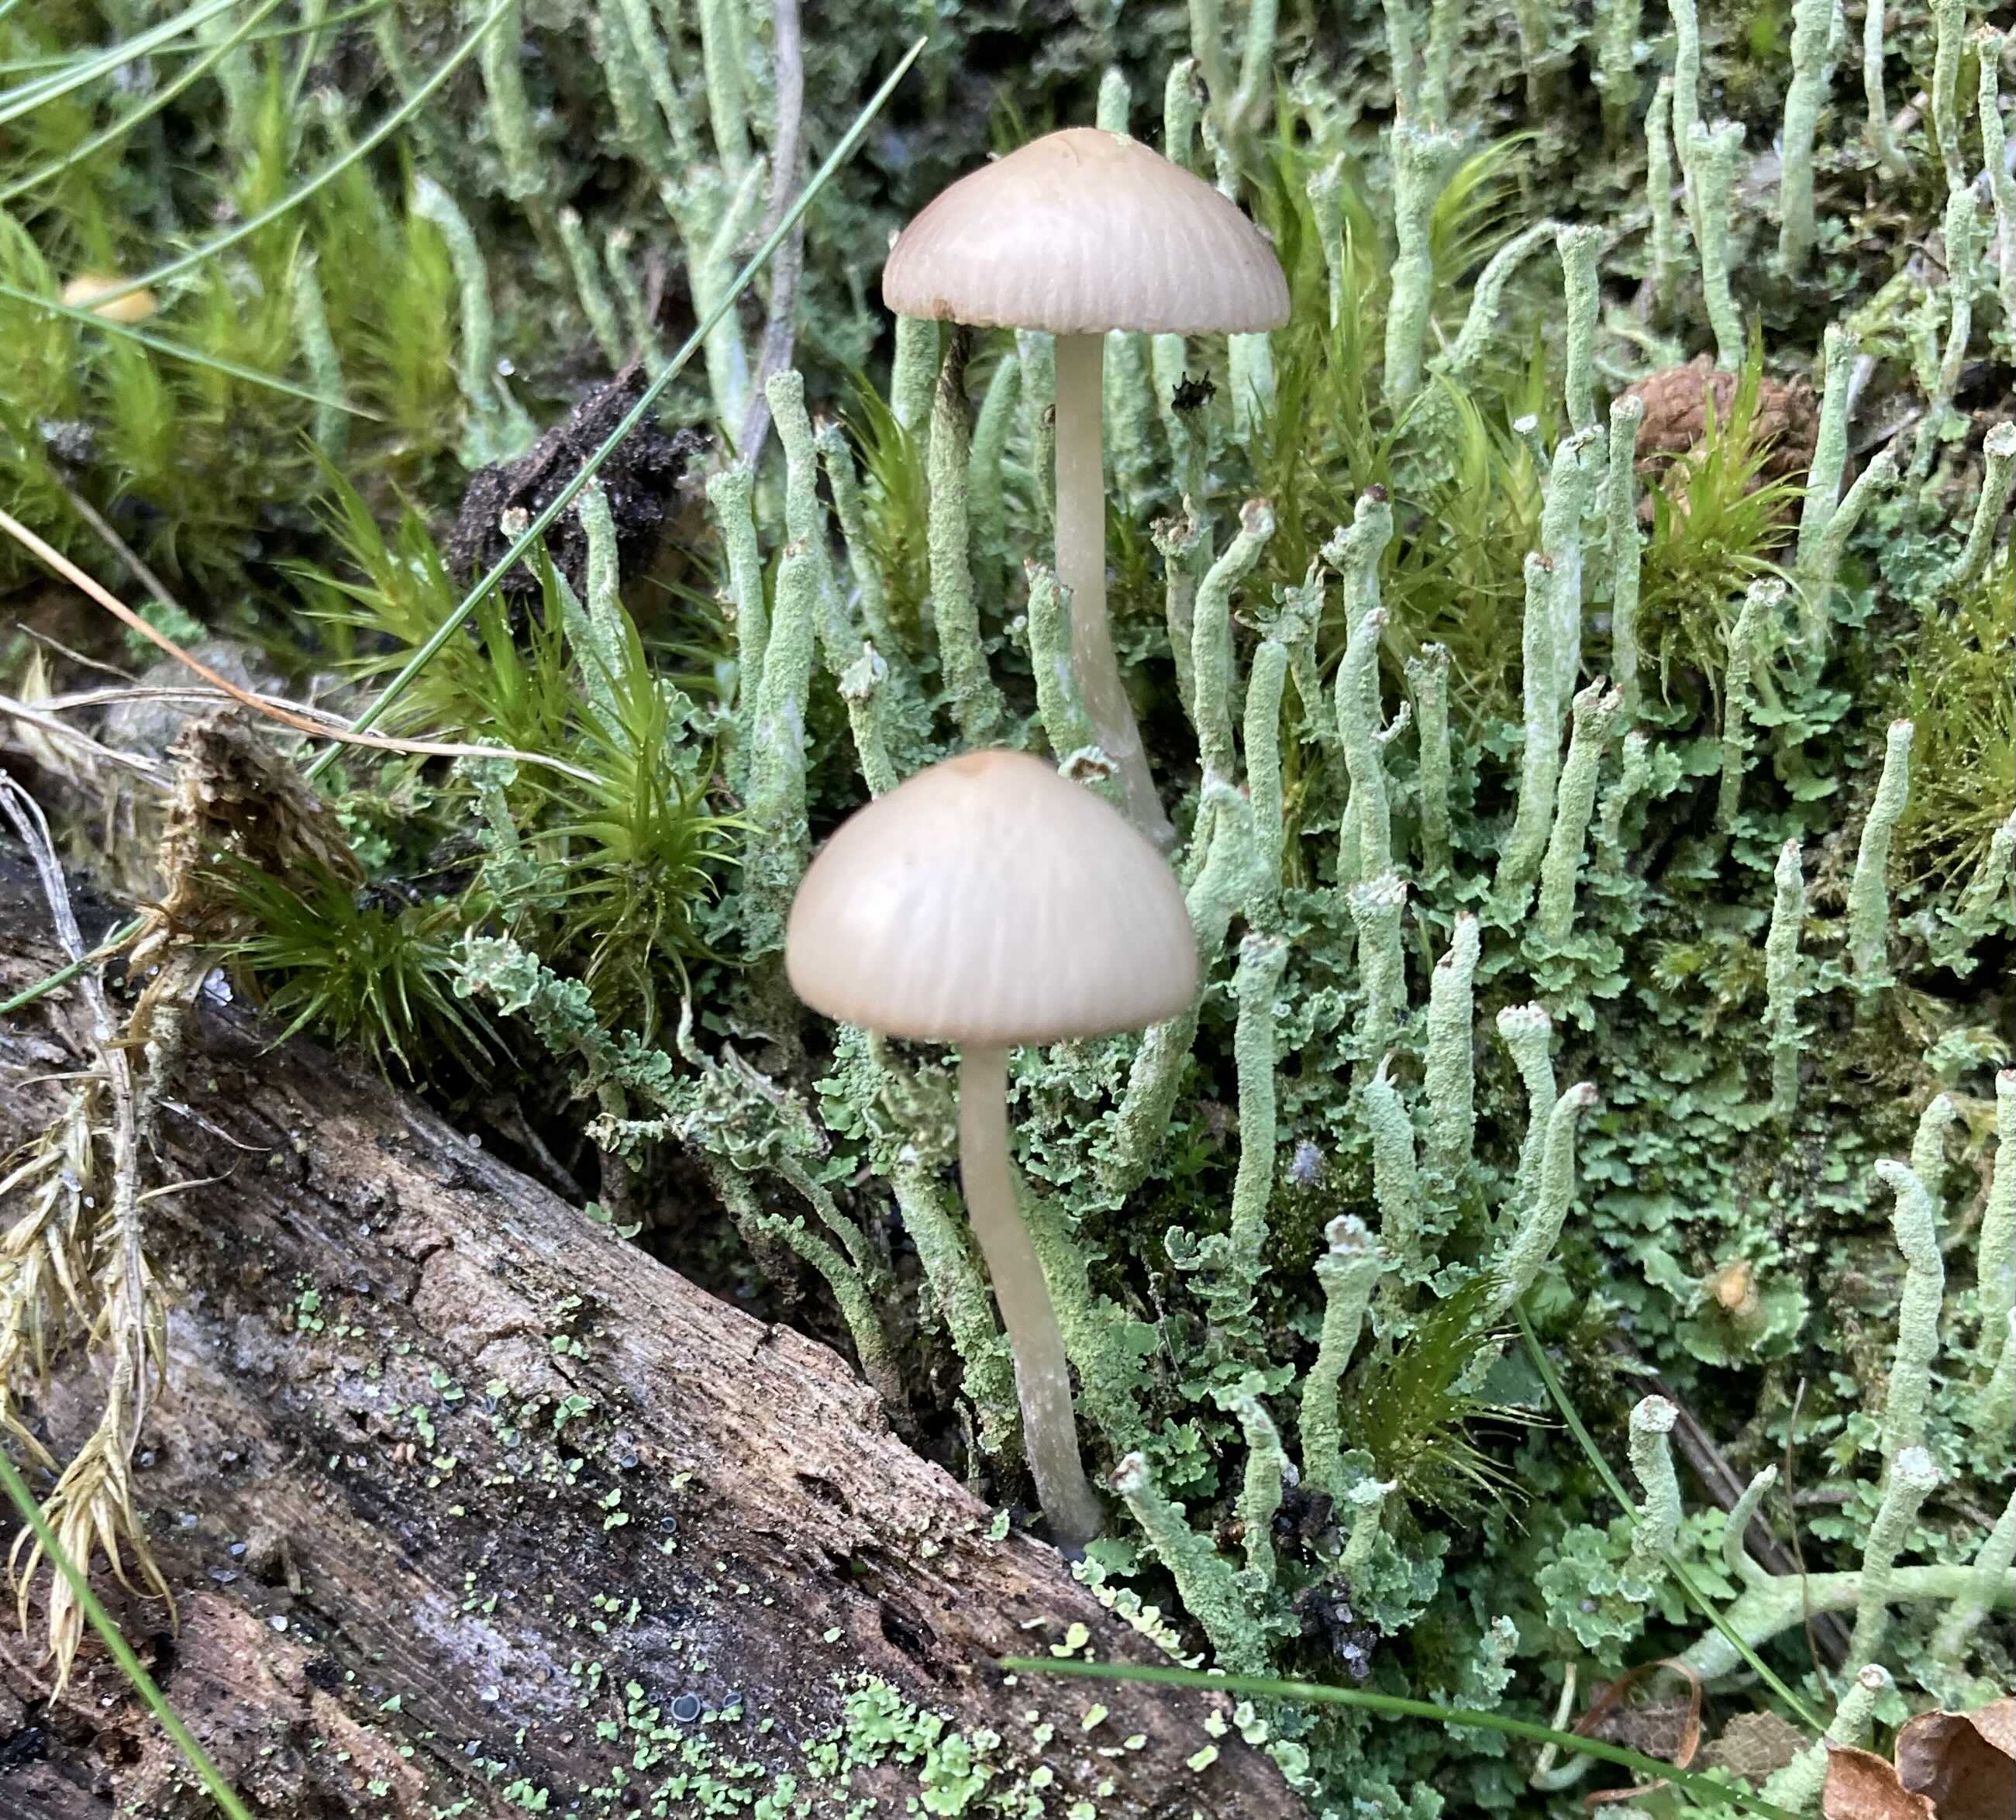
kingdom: Fungi
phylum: Basidiomycota
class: Agaricomycetes
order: Agaricales
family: Psathyrellaceae
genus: Psathyrella
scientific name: Psathyrella
